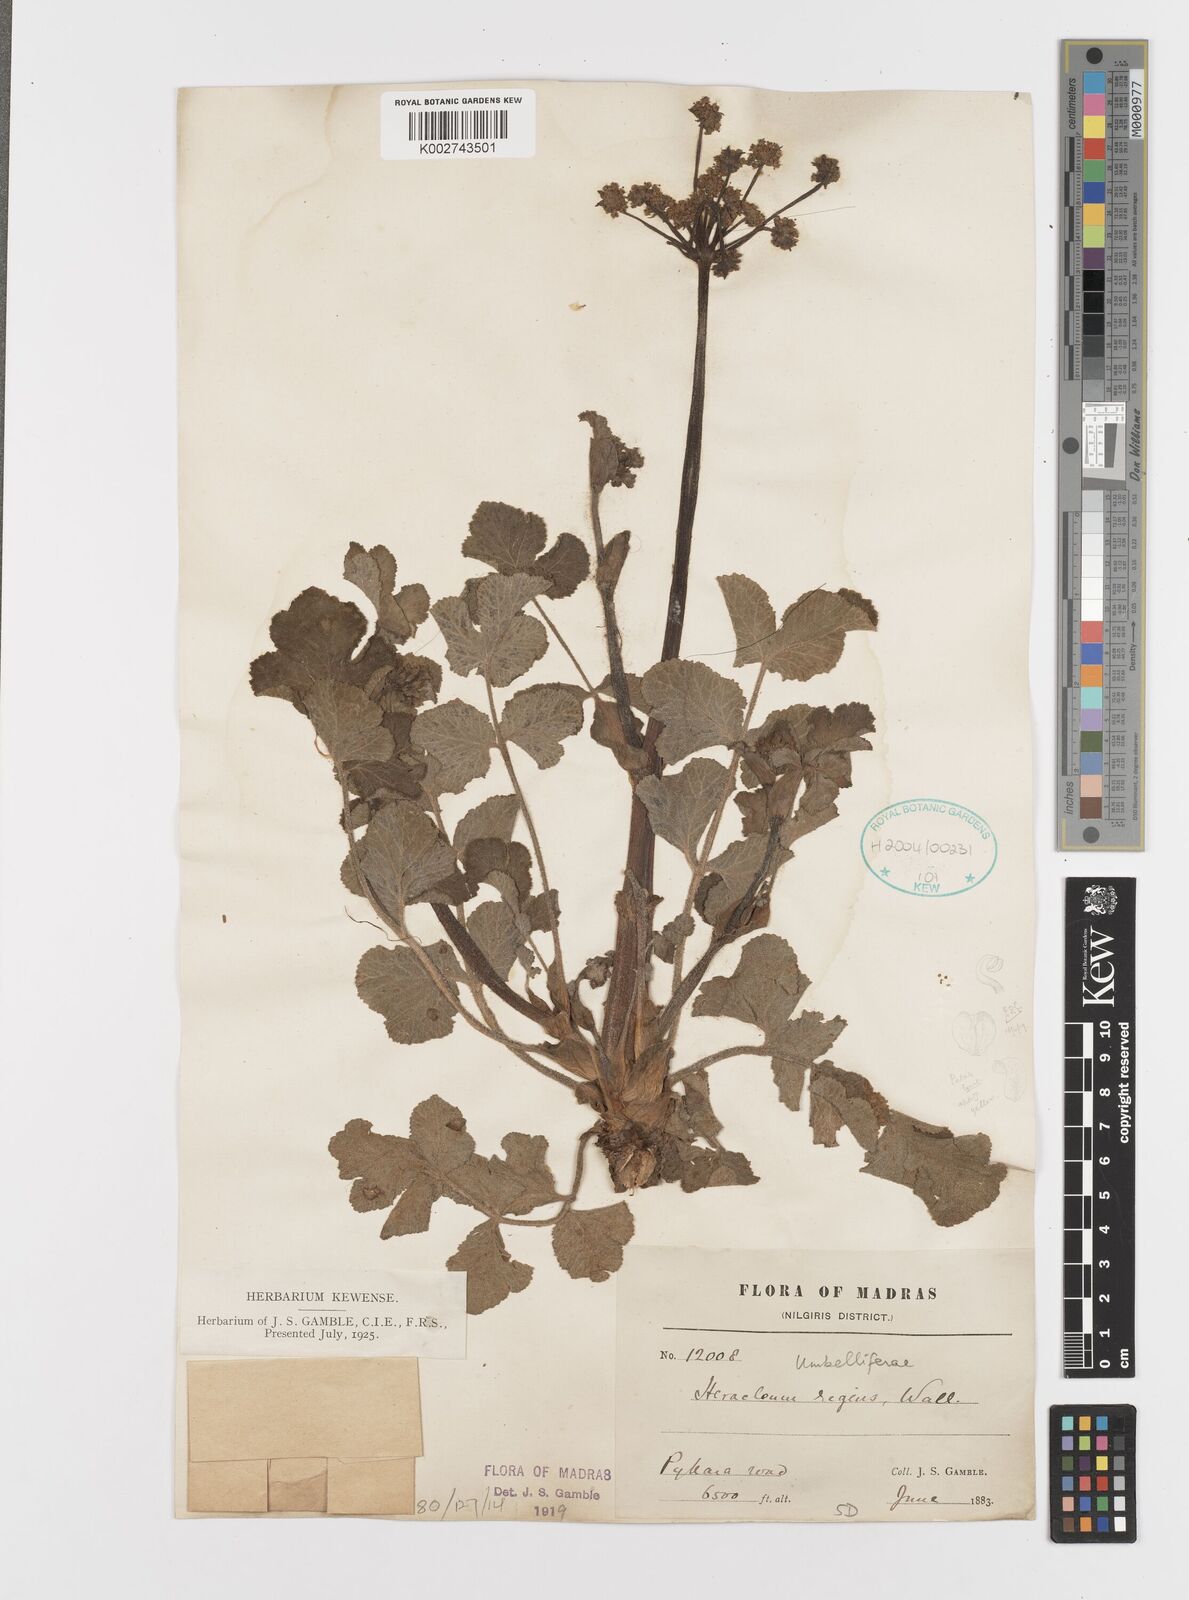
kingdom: Plantae
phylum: Tracheophyta
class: Magnoliopsida
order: Apiales
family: Apiaceae
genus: Tetrataenium
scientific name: Tetrataenium rigens
